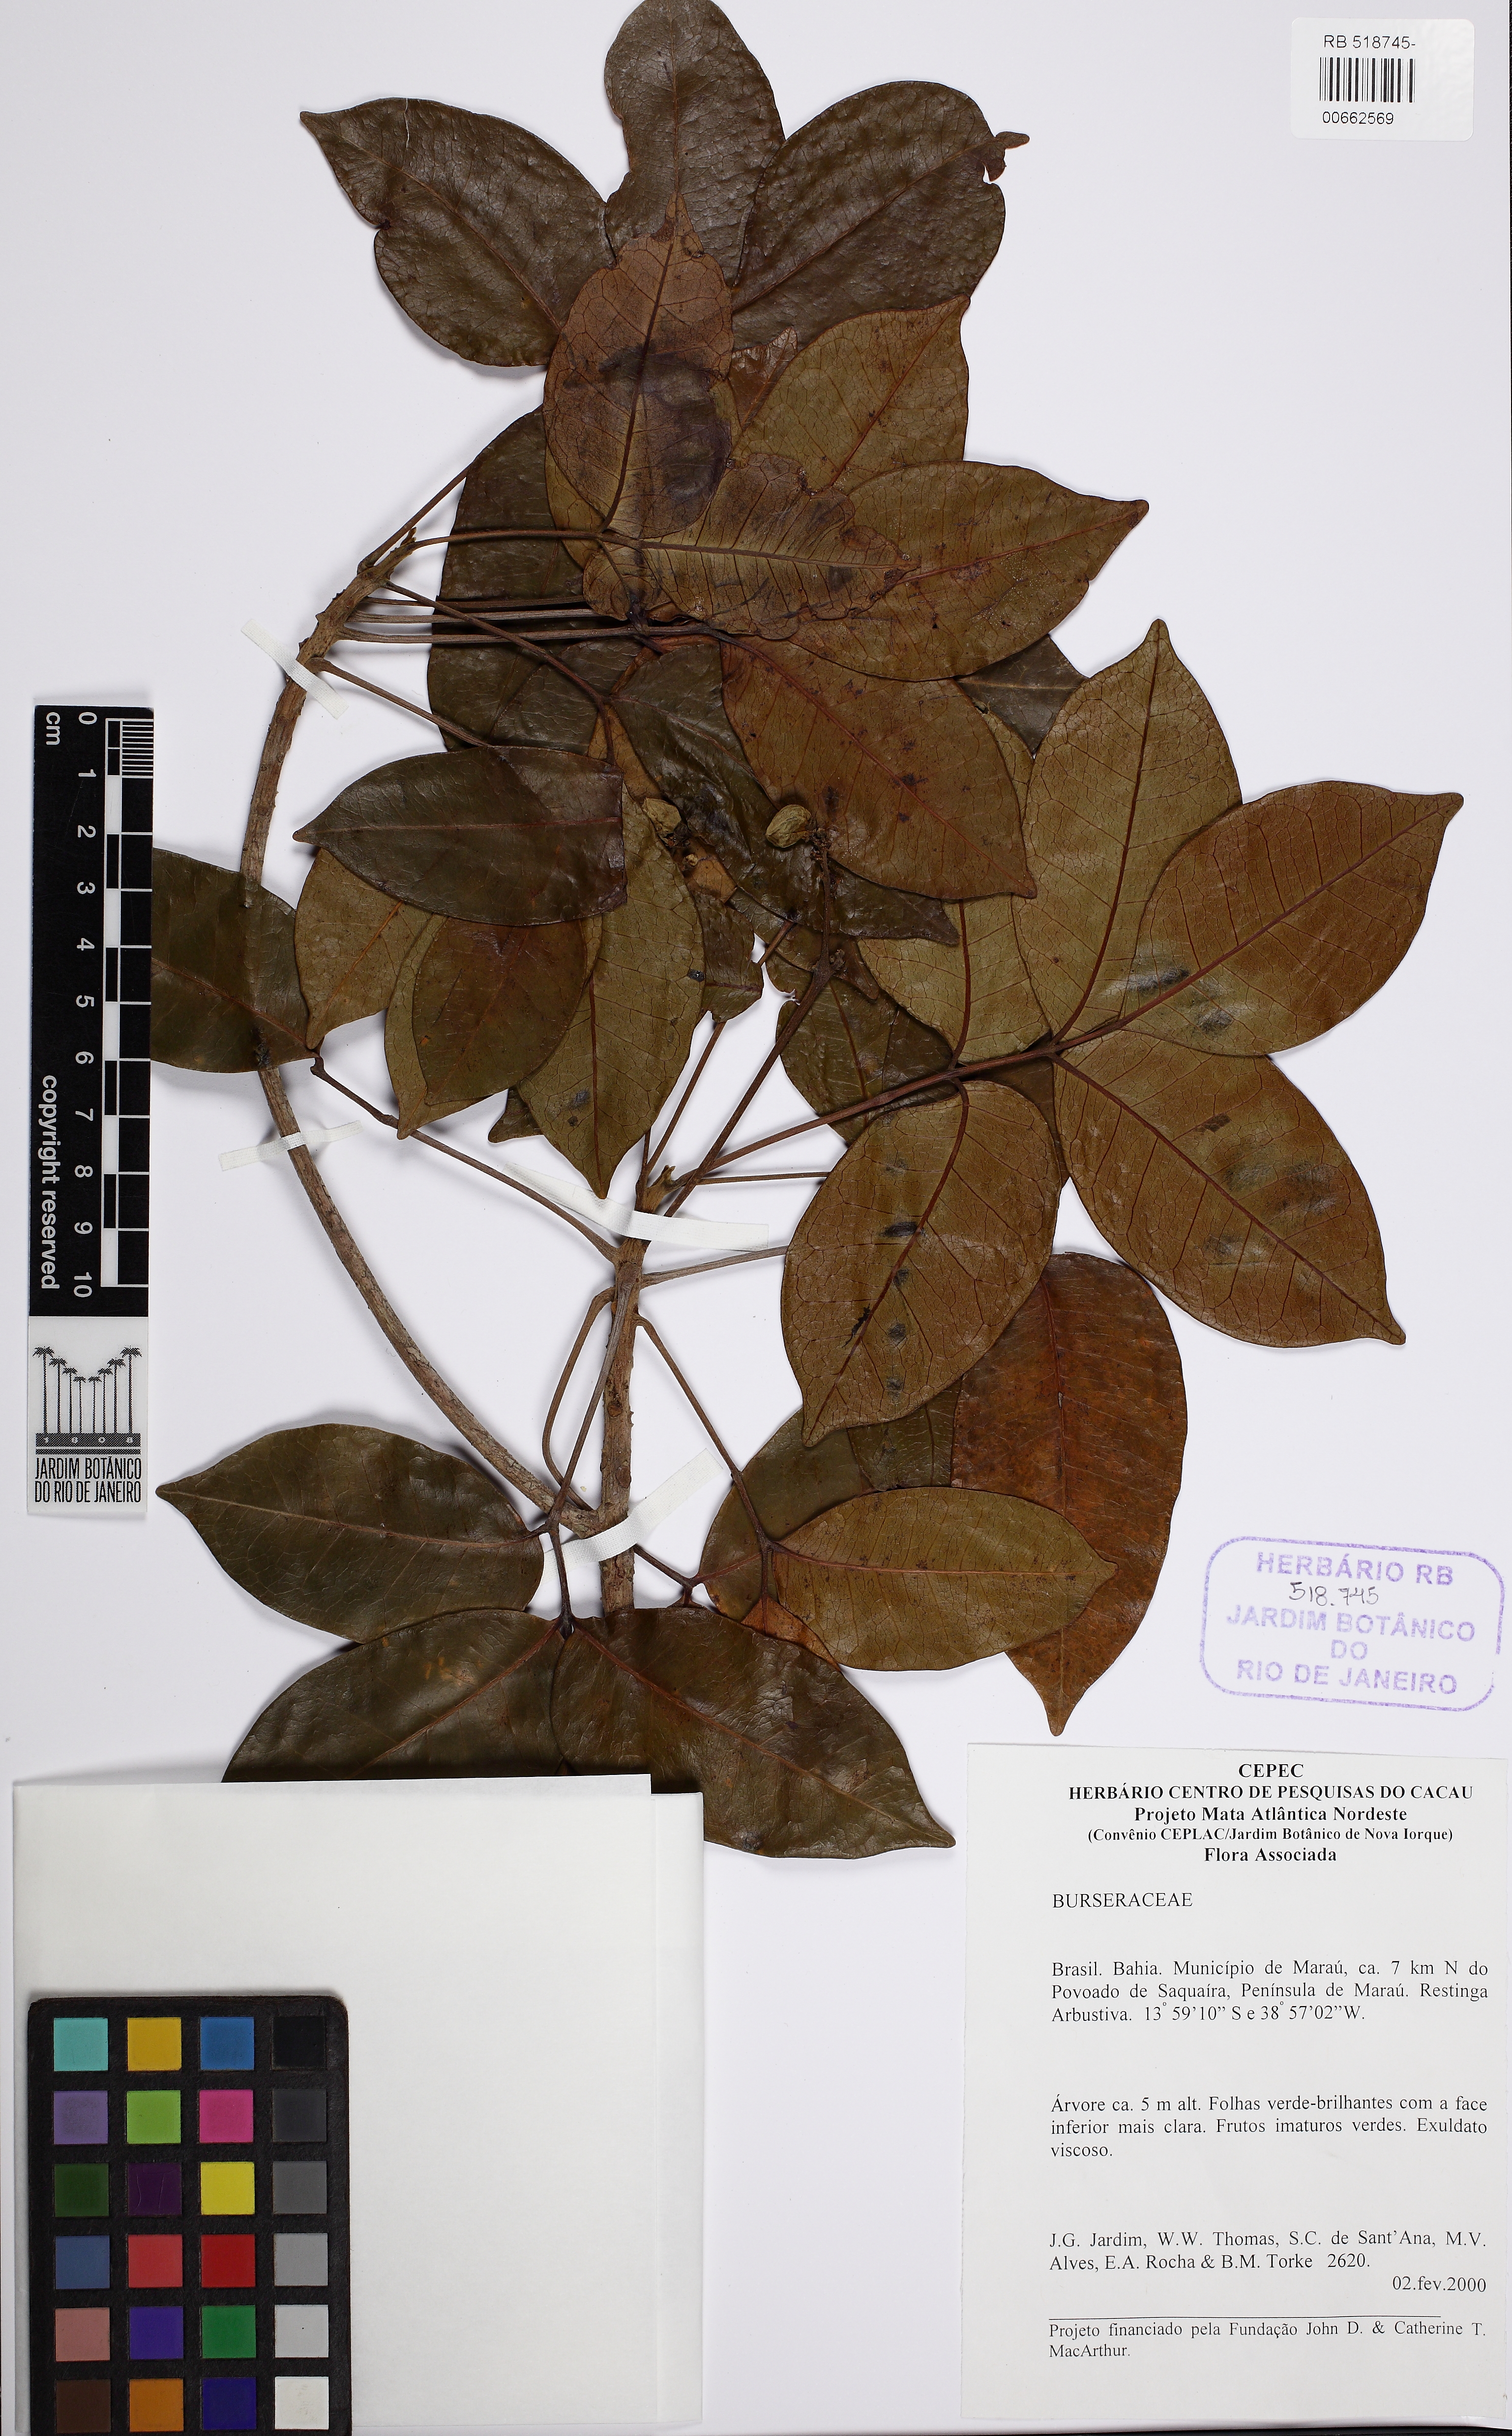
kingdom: Plantae
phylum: Tracheophyta
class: Magnoliopsida
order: Sapindales
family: Burseraceae
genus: Tetragastris
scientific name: Tetragastris occhionii
